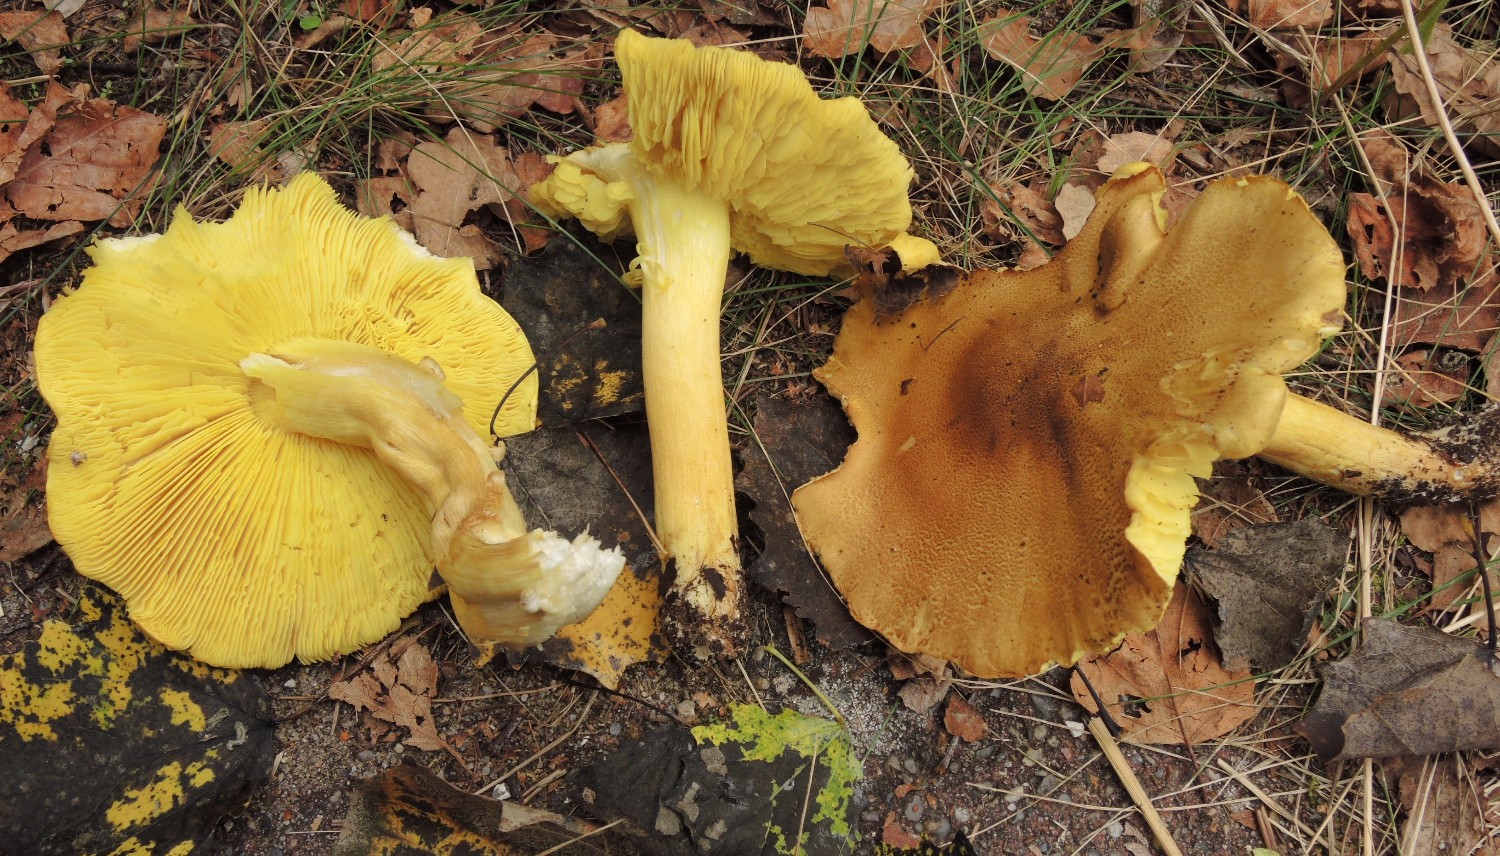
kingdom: Fungi
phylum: Basidiomycota
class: Agaricomycetes
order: Agaricales
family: Tricholomataceae
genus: Tricholoma
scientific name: Tricholoma frondosae
